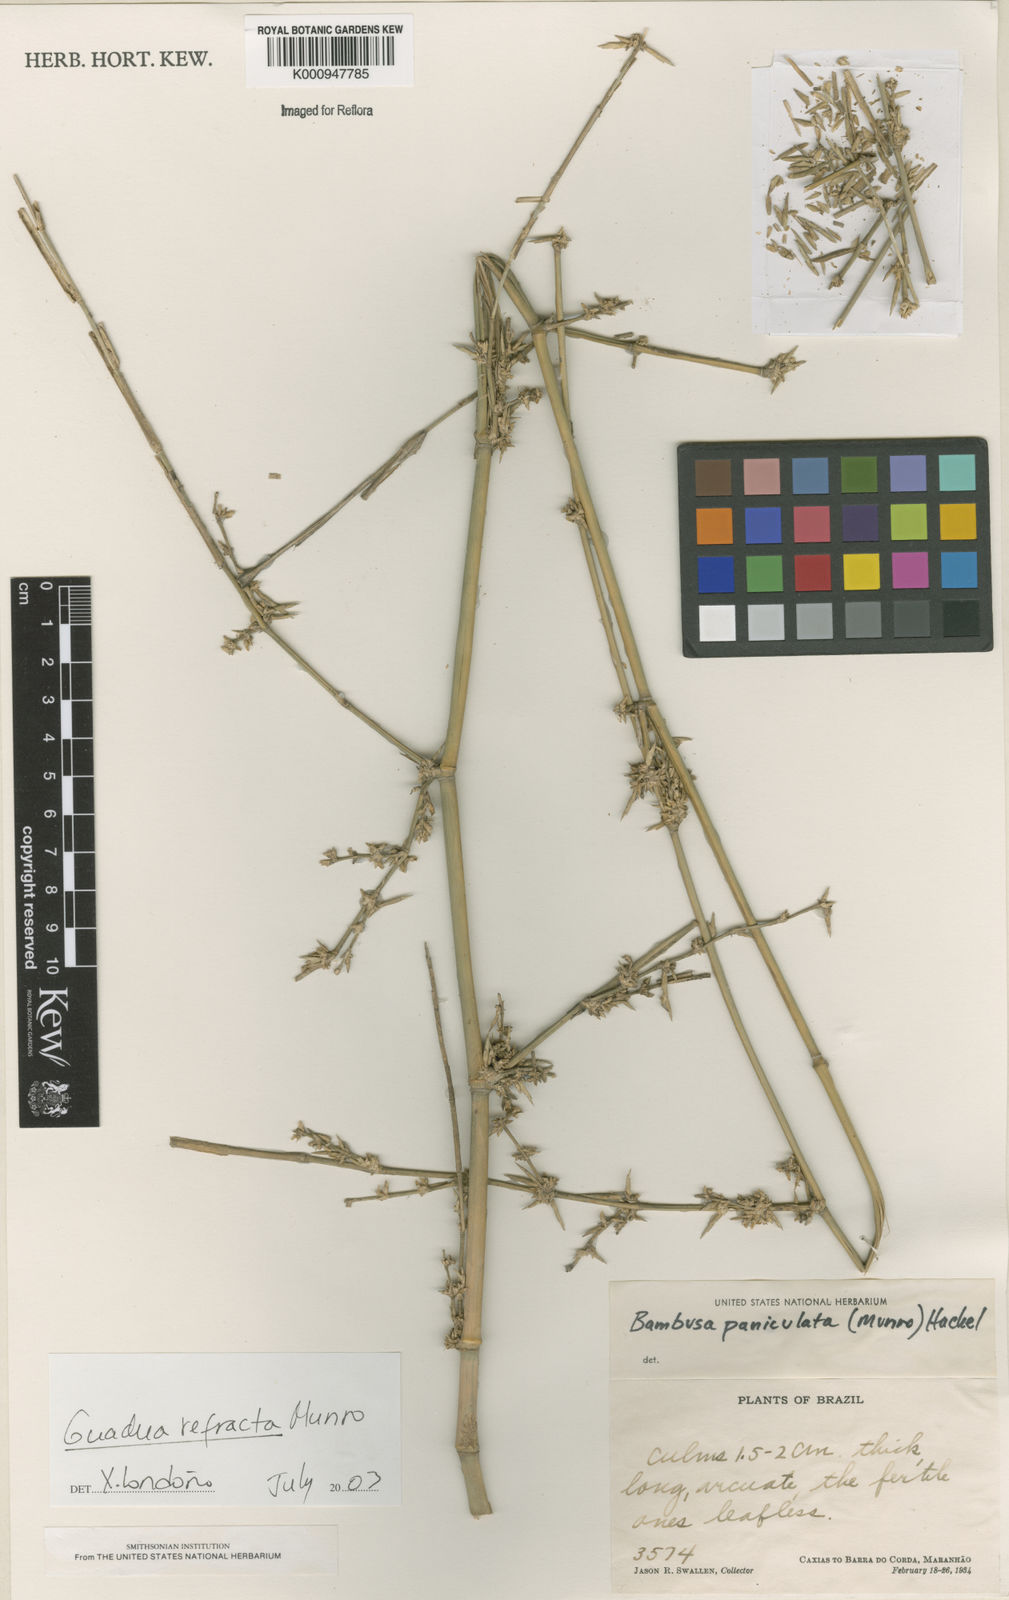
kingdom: Plantae
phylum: Tracheophyta
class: Liliopsida
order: Poales
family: Poaceae
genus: Guadua
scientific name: Guadua
